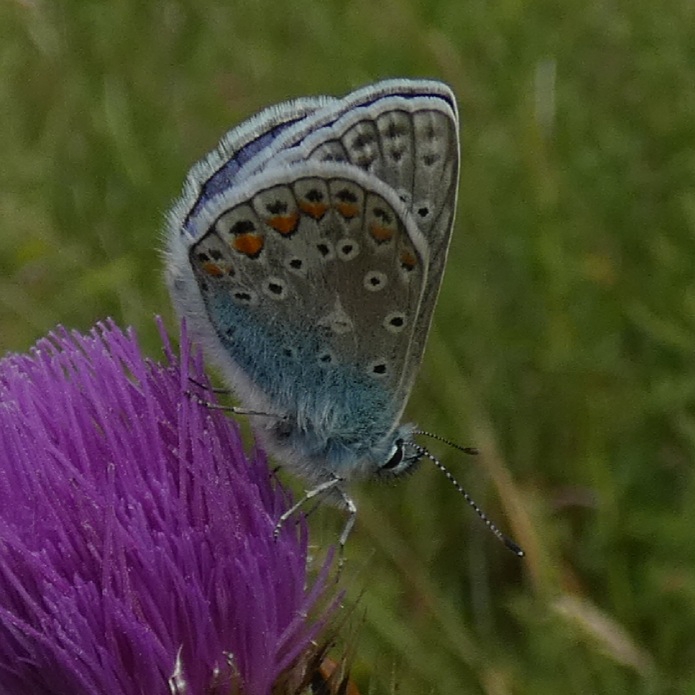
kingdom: Animalia
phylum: Arthropoda
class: Insecta
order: Lepidoptera
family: Lycaenidae
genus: Polyommatus
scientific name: Polyommatus icarus
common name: Almindelig blåfugl
